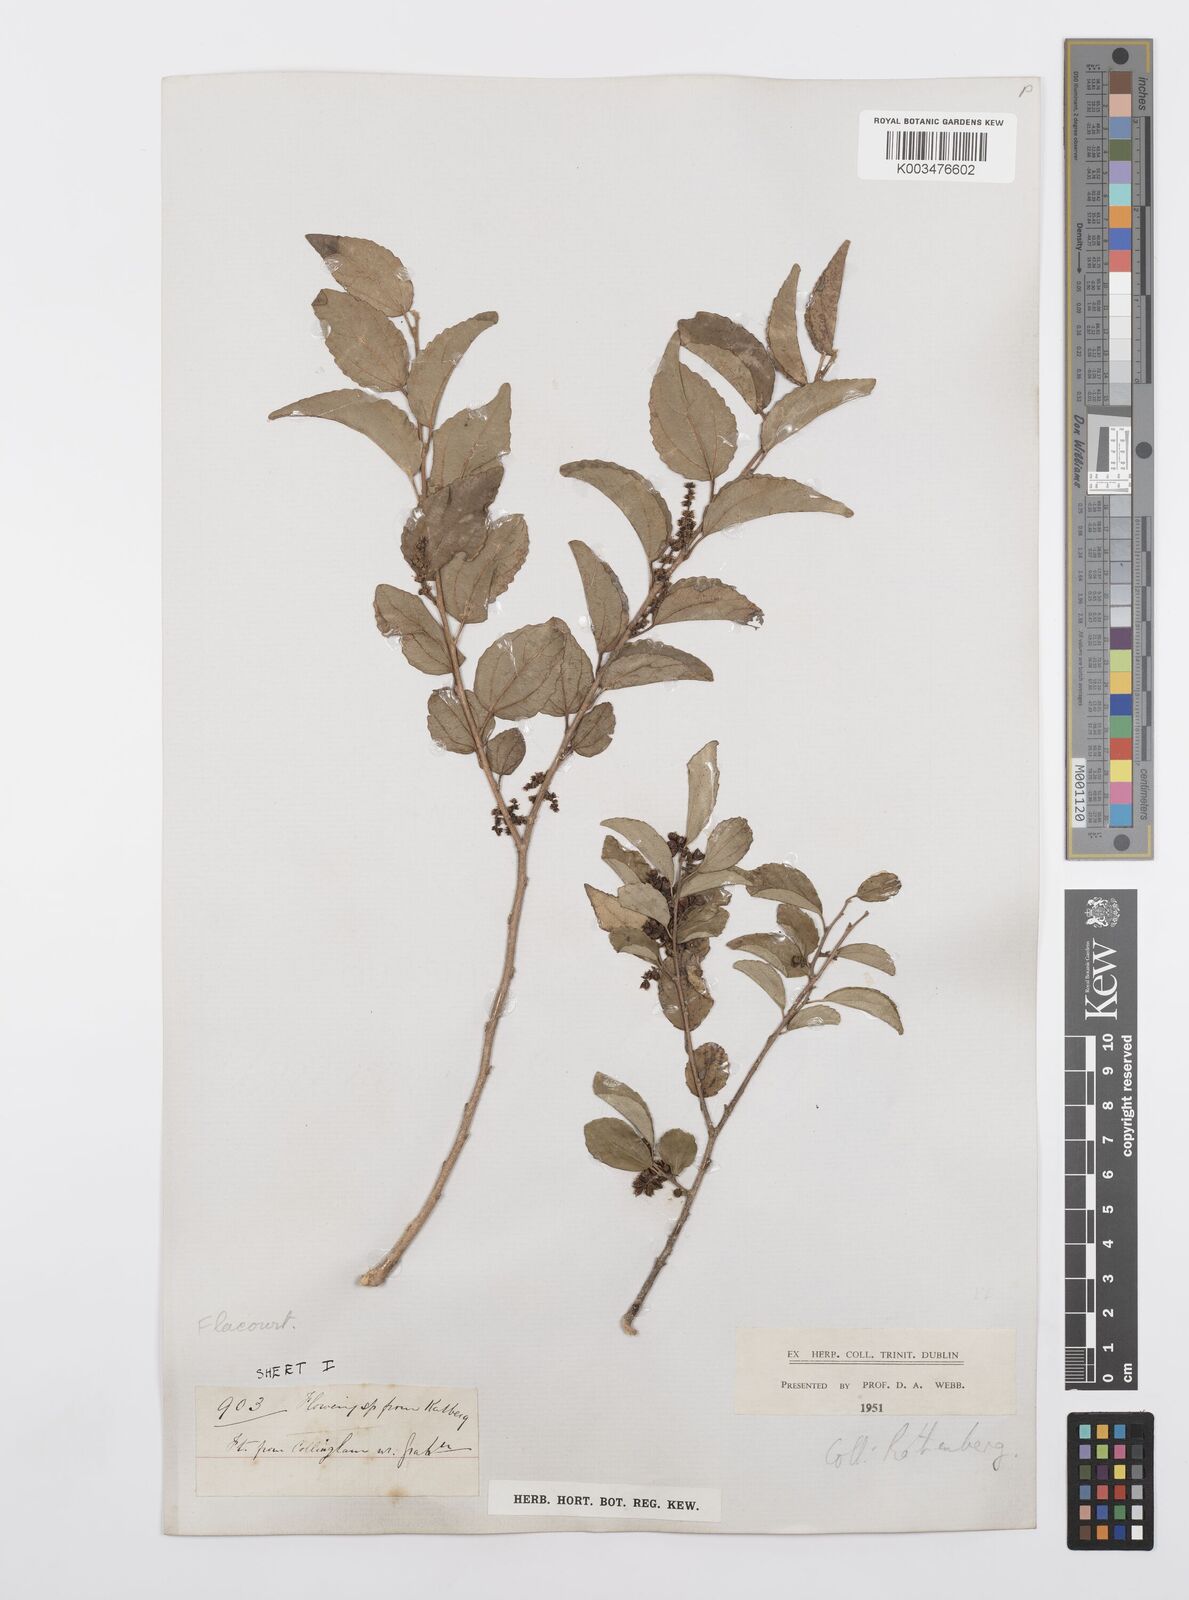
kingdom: Plantae
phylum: Tracheophyta
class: Magnoliopsida
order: Malpighiales
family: Salicaceae
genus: Trimeria
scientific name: Trimeria trinervis
